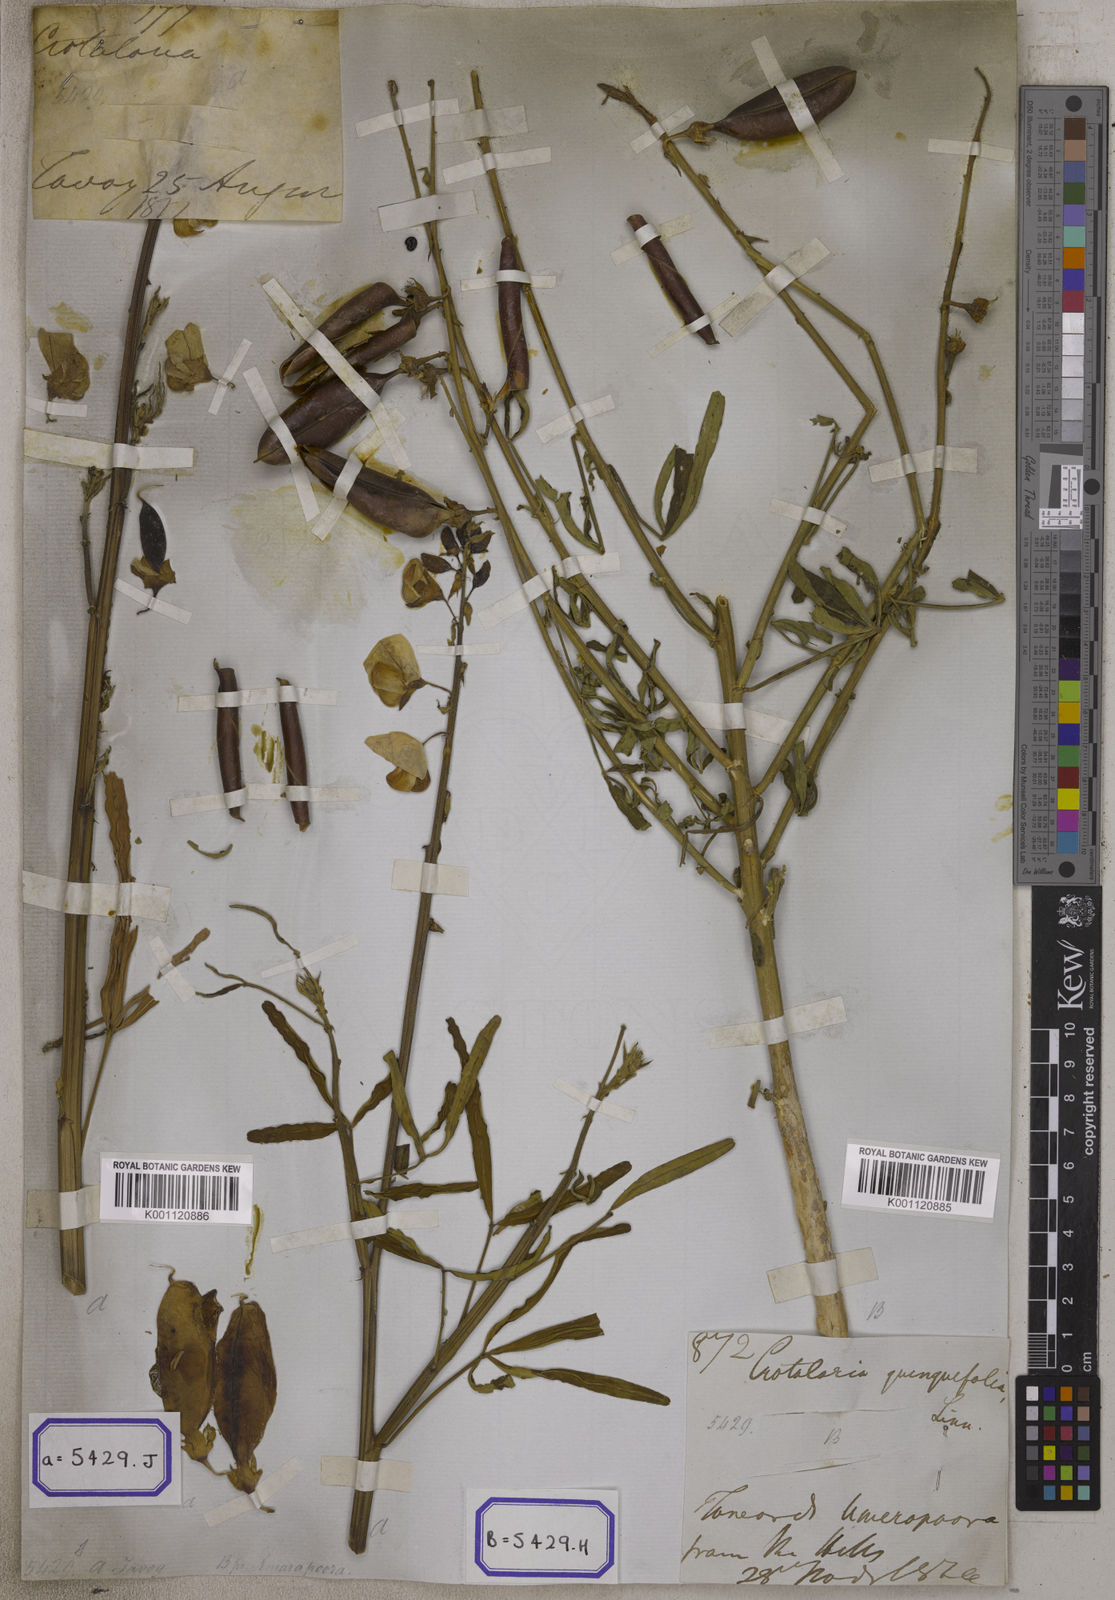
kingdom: Plantae
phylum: Tracheophyta
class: Magnoliopsida
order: Fabales
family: Fabaceae
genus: Crotalaria
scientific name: Crotalaria quinquefolia
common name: Five-leaf crotalaria
